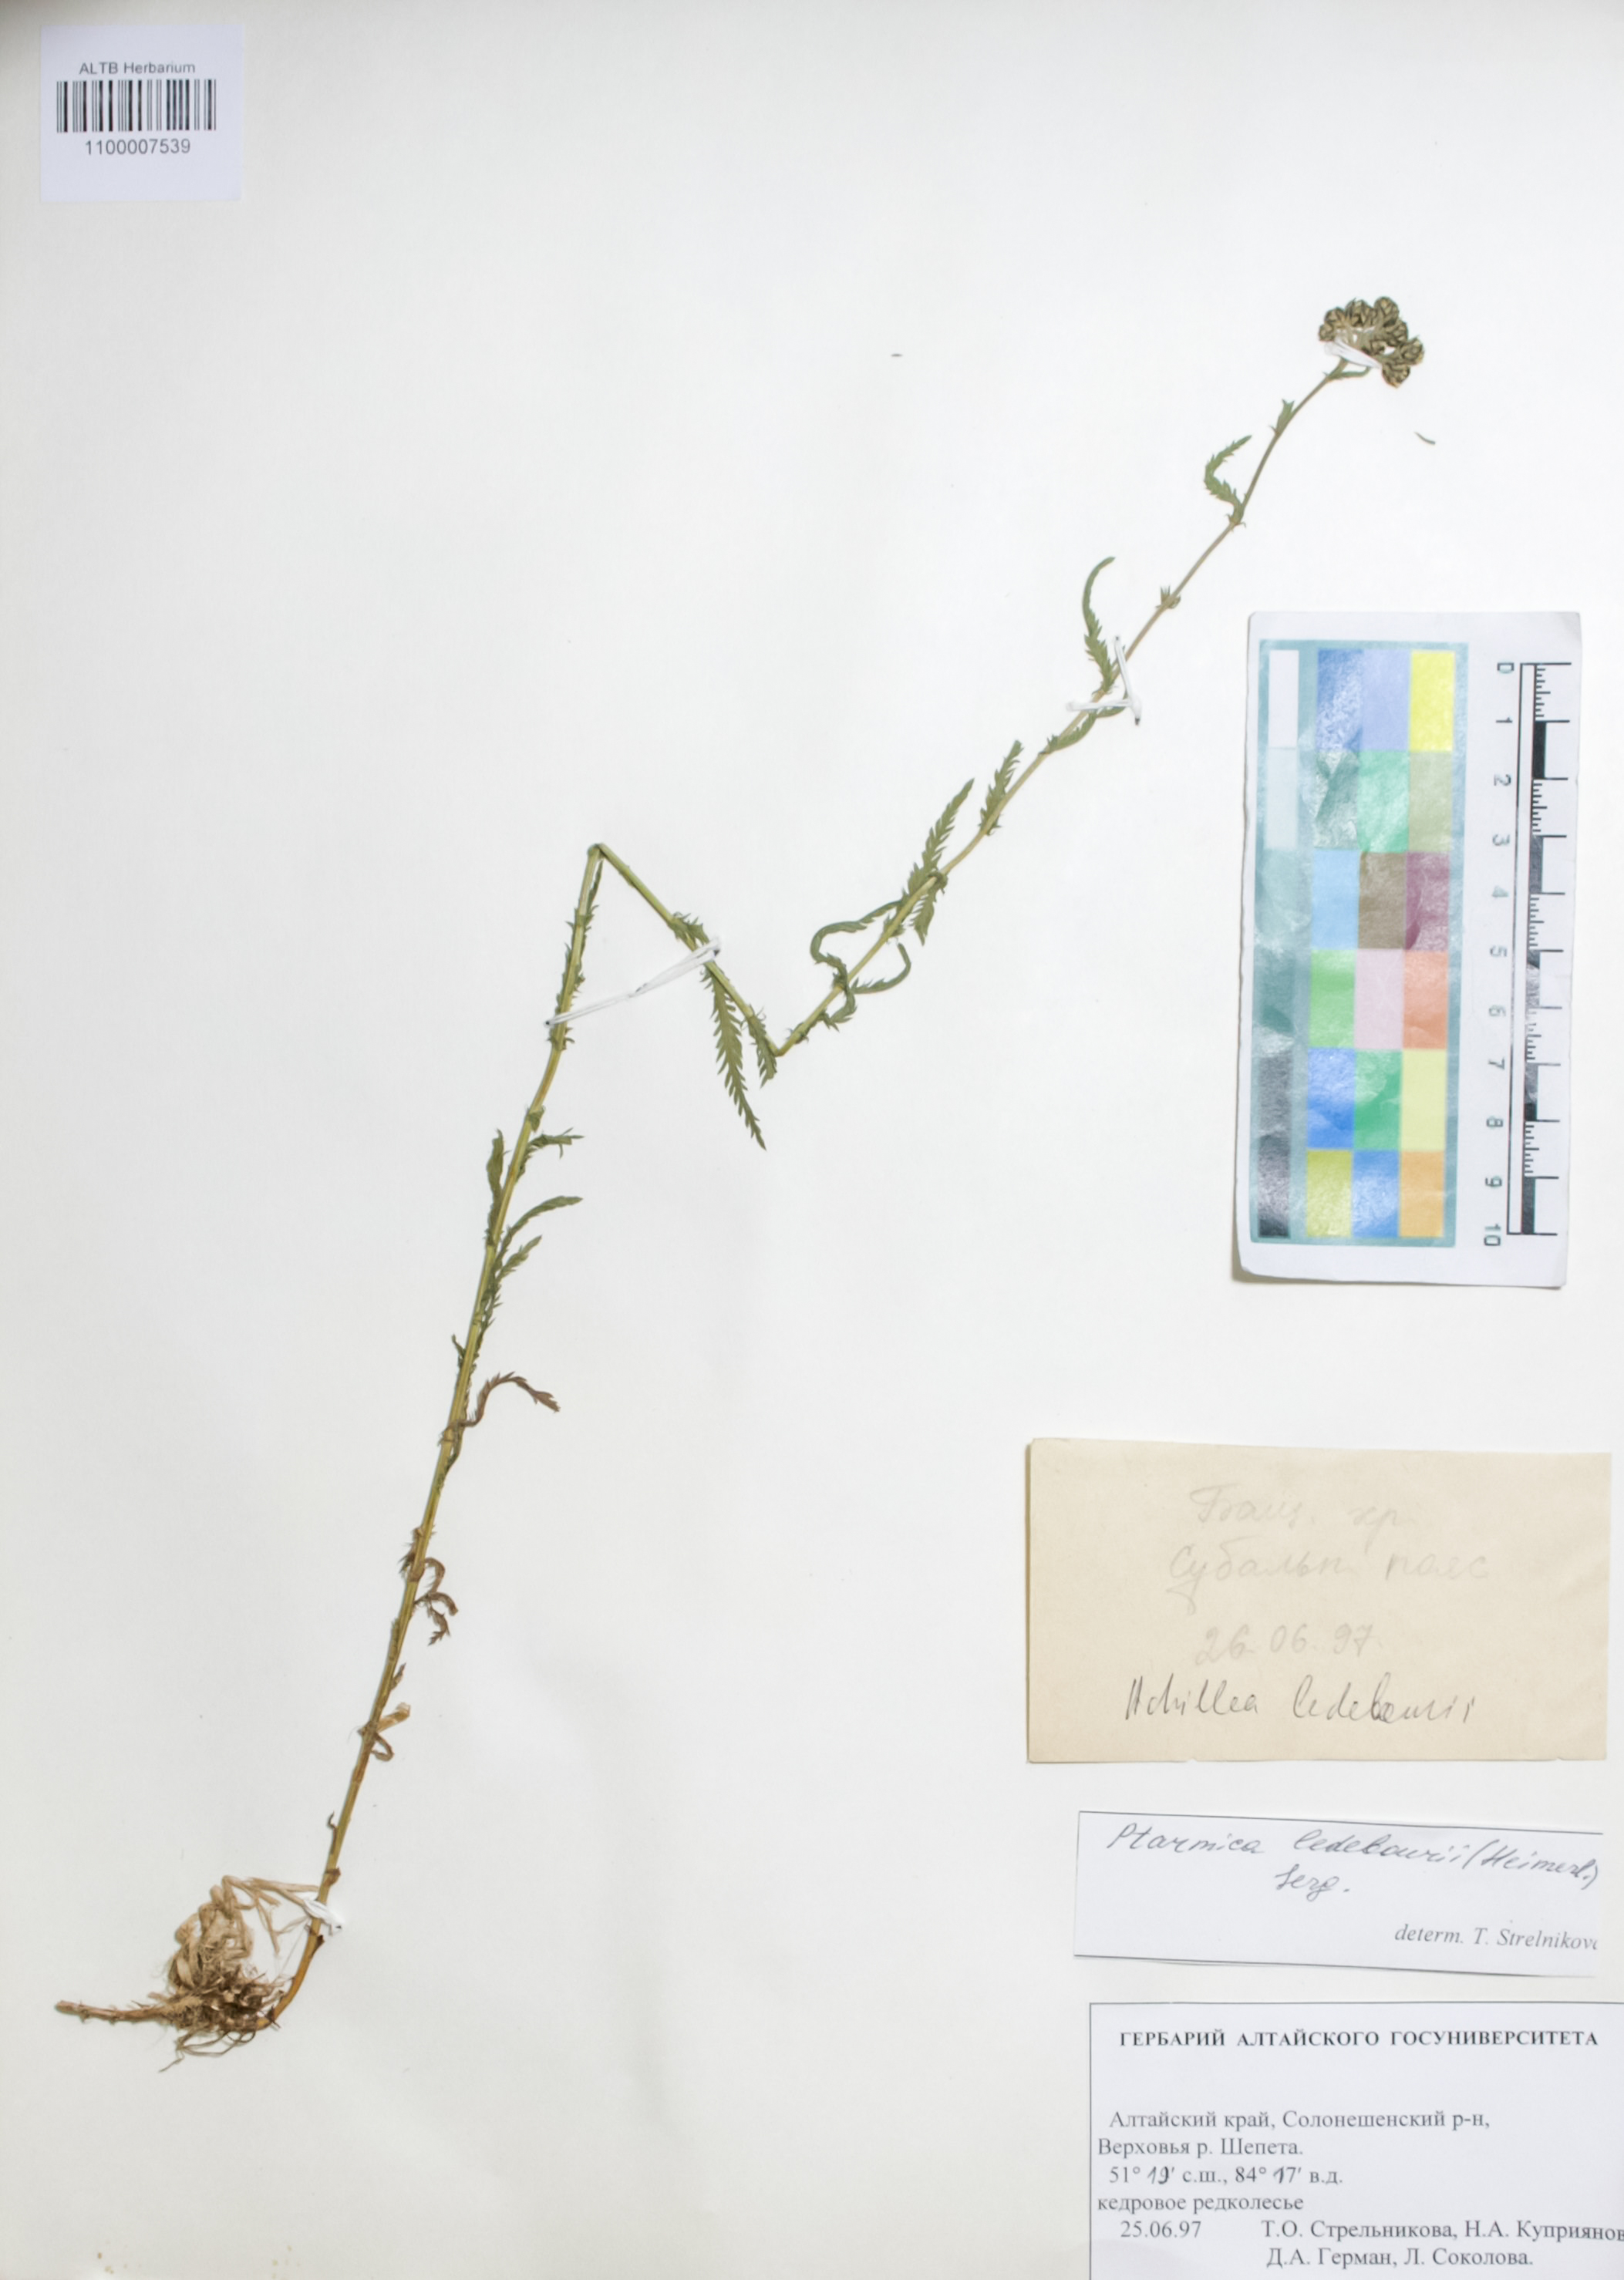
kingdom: Plantae
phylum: Tracheophyta
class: Magnoliopsida
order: Asterales
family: Asteraceae
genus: Achillea
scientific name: Achillea ledebourii
